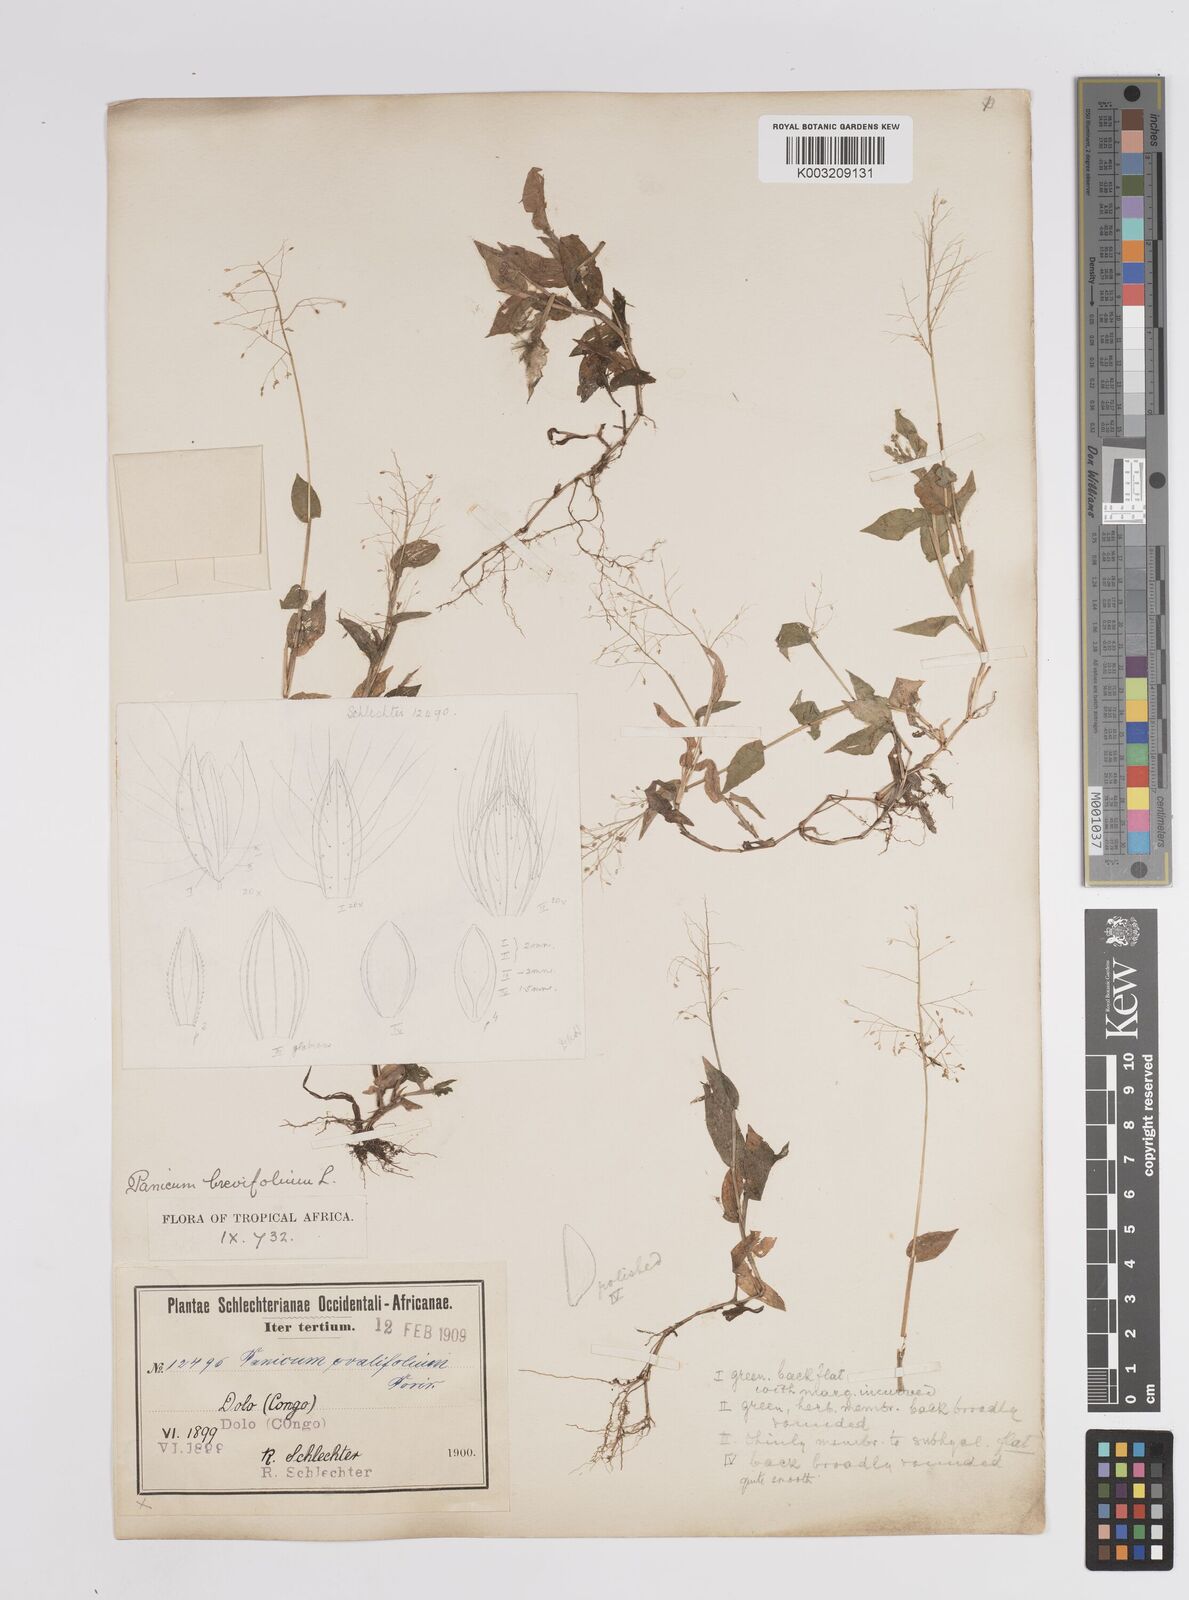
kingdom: Plantae
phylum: Tracheophyta
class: Liliopsida
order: Poales
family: Poaceae
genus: Panicum
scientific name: Panicum brevifolium
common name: Shortleaf panic grass
